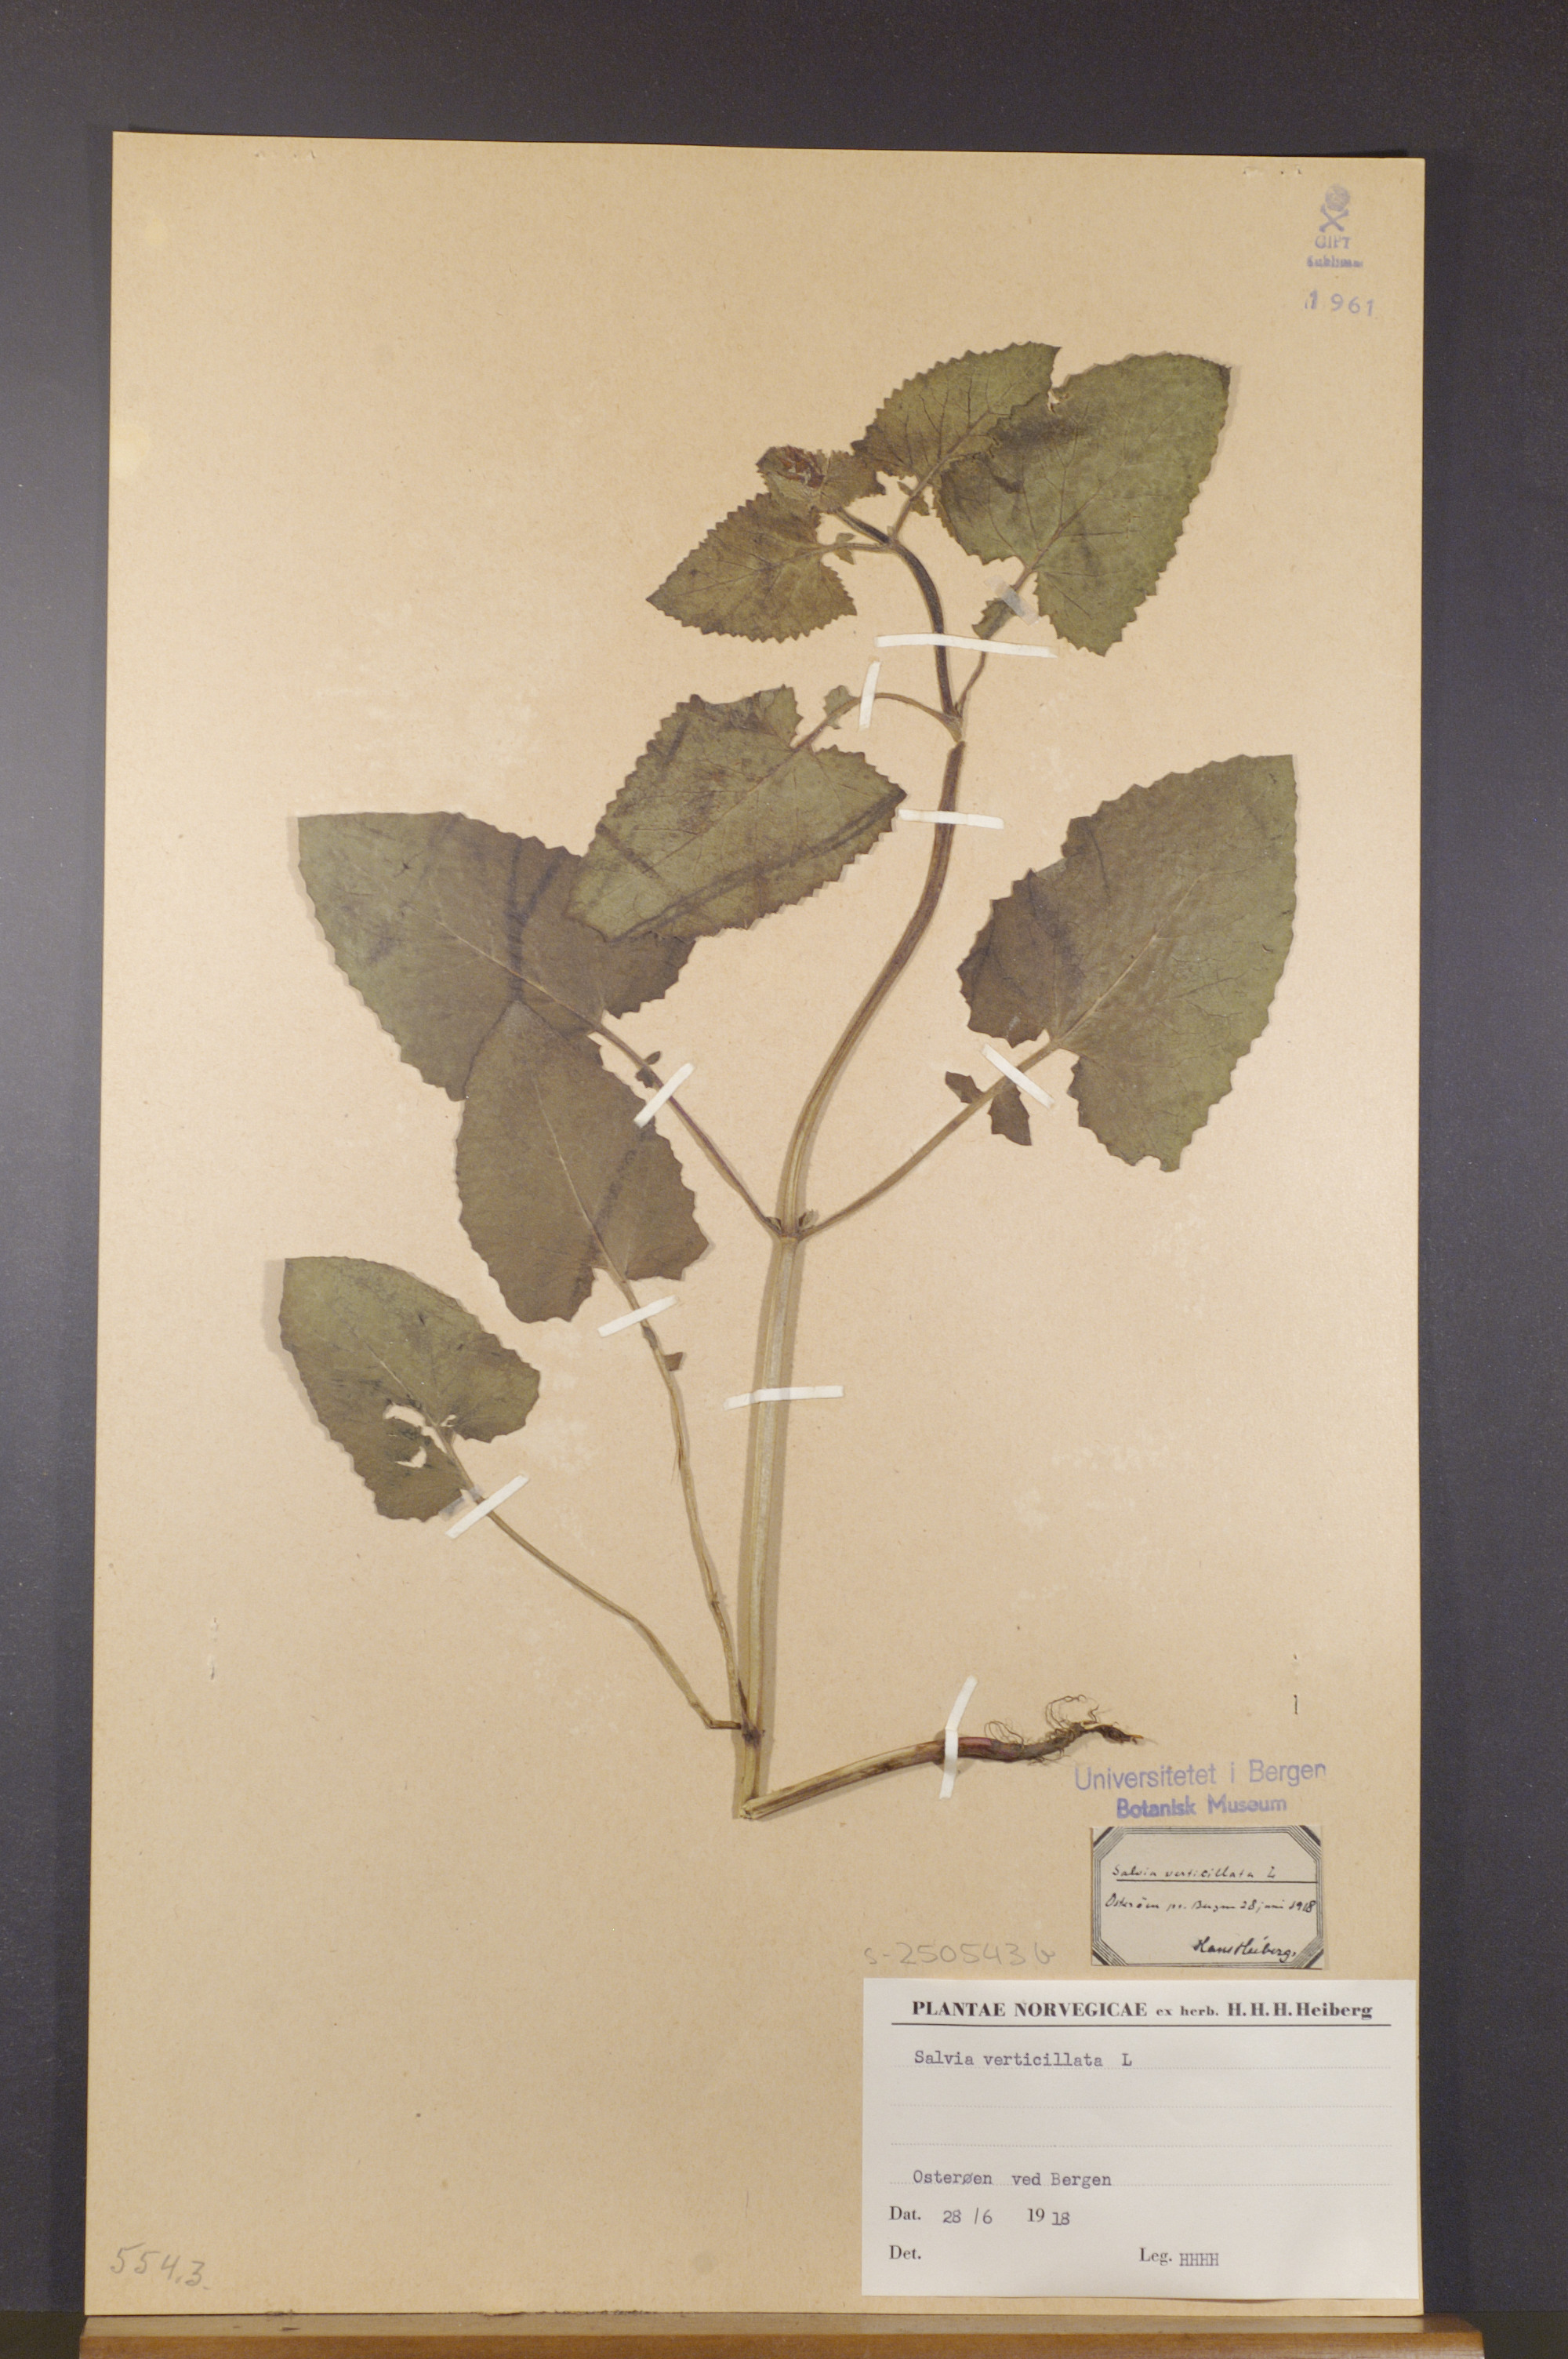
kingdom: Plantae
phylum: Tracheophyta
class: Magnoliopsida
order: Lamiales
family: Lamiaceae
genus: Salvia
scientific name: Salvia verticillata
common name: Whorled clary
